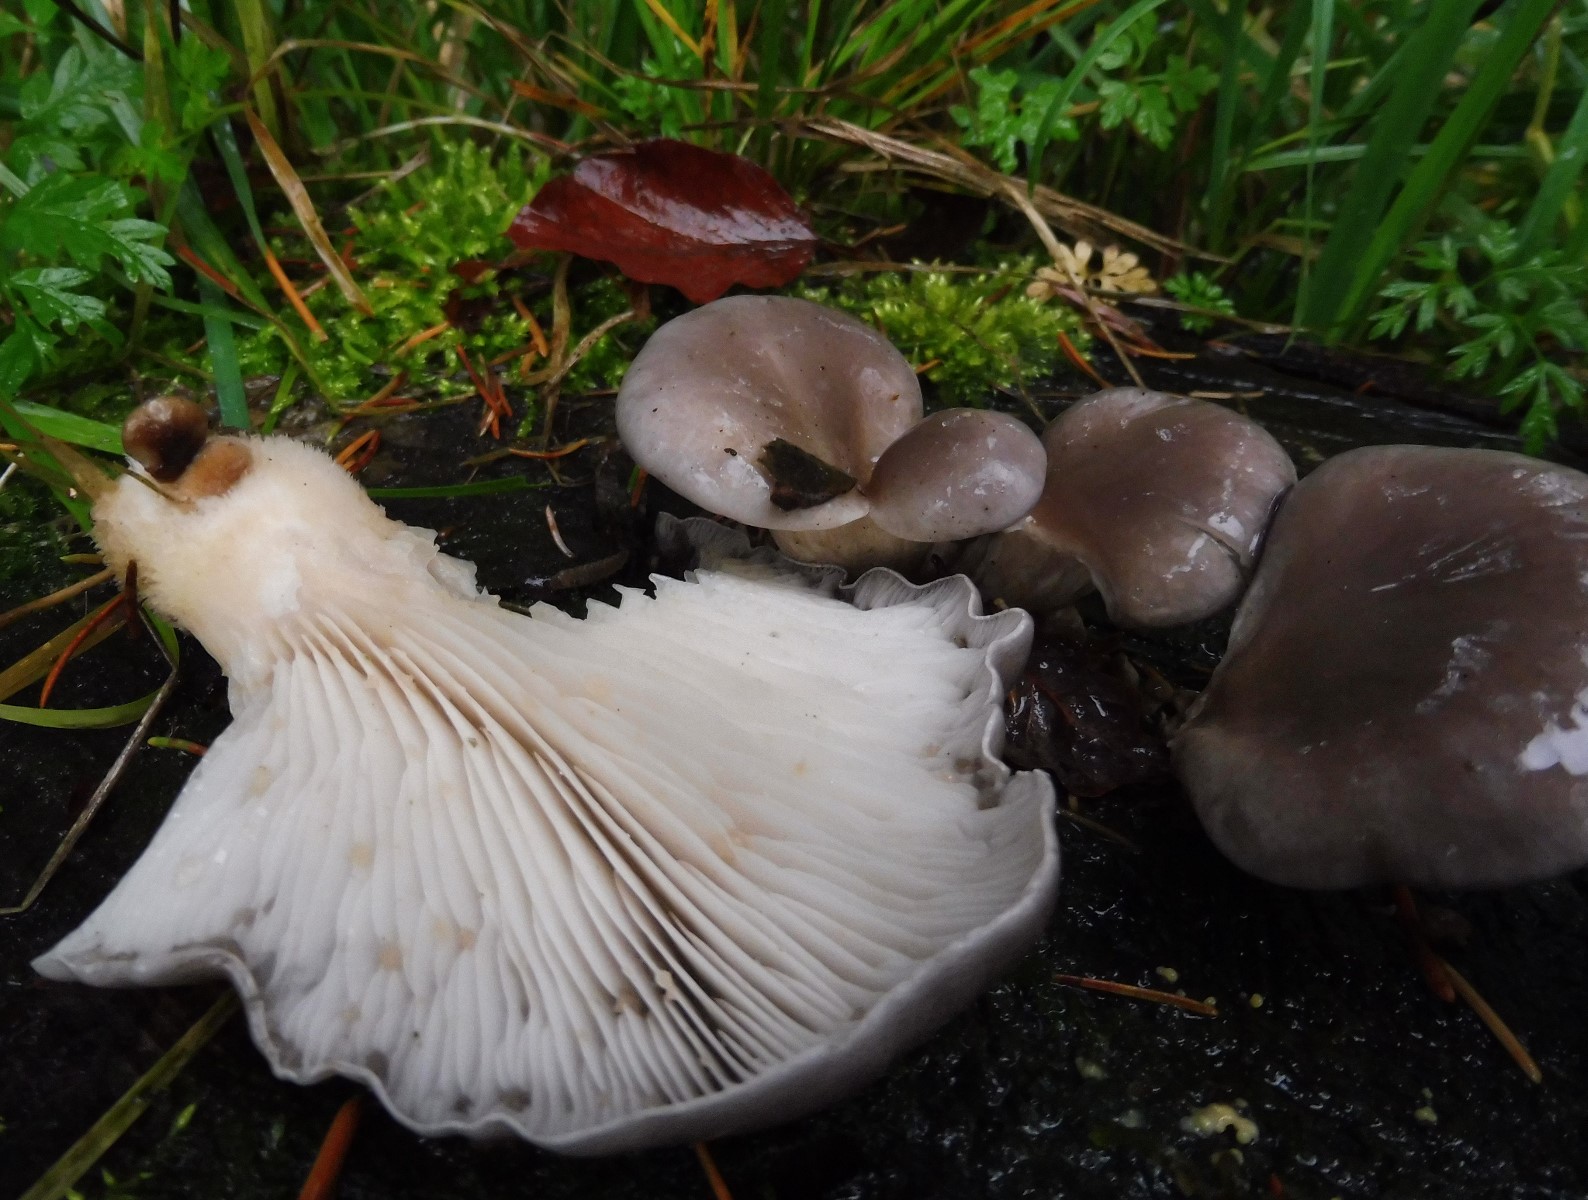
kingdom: Fungi
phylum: Basidiomycota
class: Agaricomycetes
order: Agaricales
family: Pleurotaceae
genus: Pleurotus
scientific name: Pleurotus ostreatus
